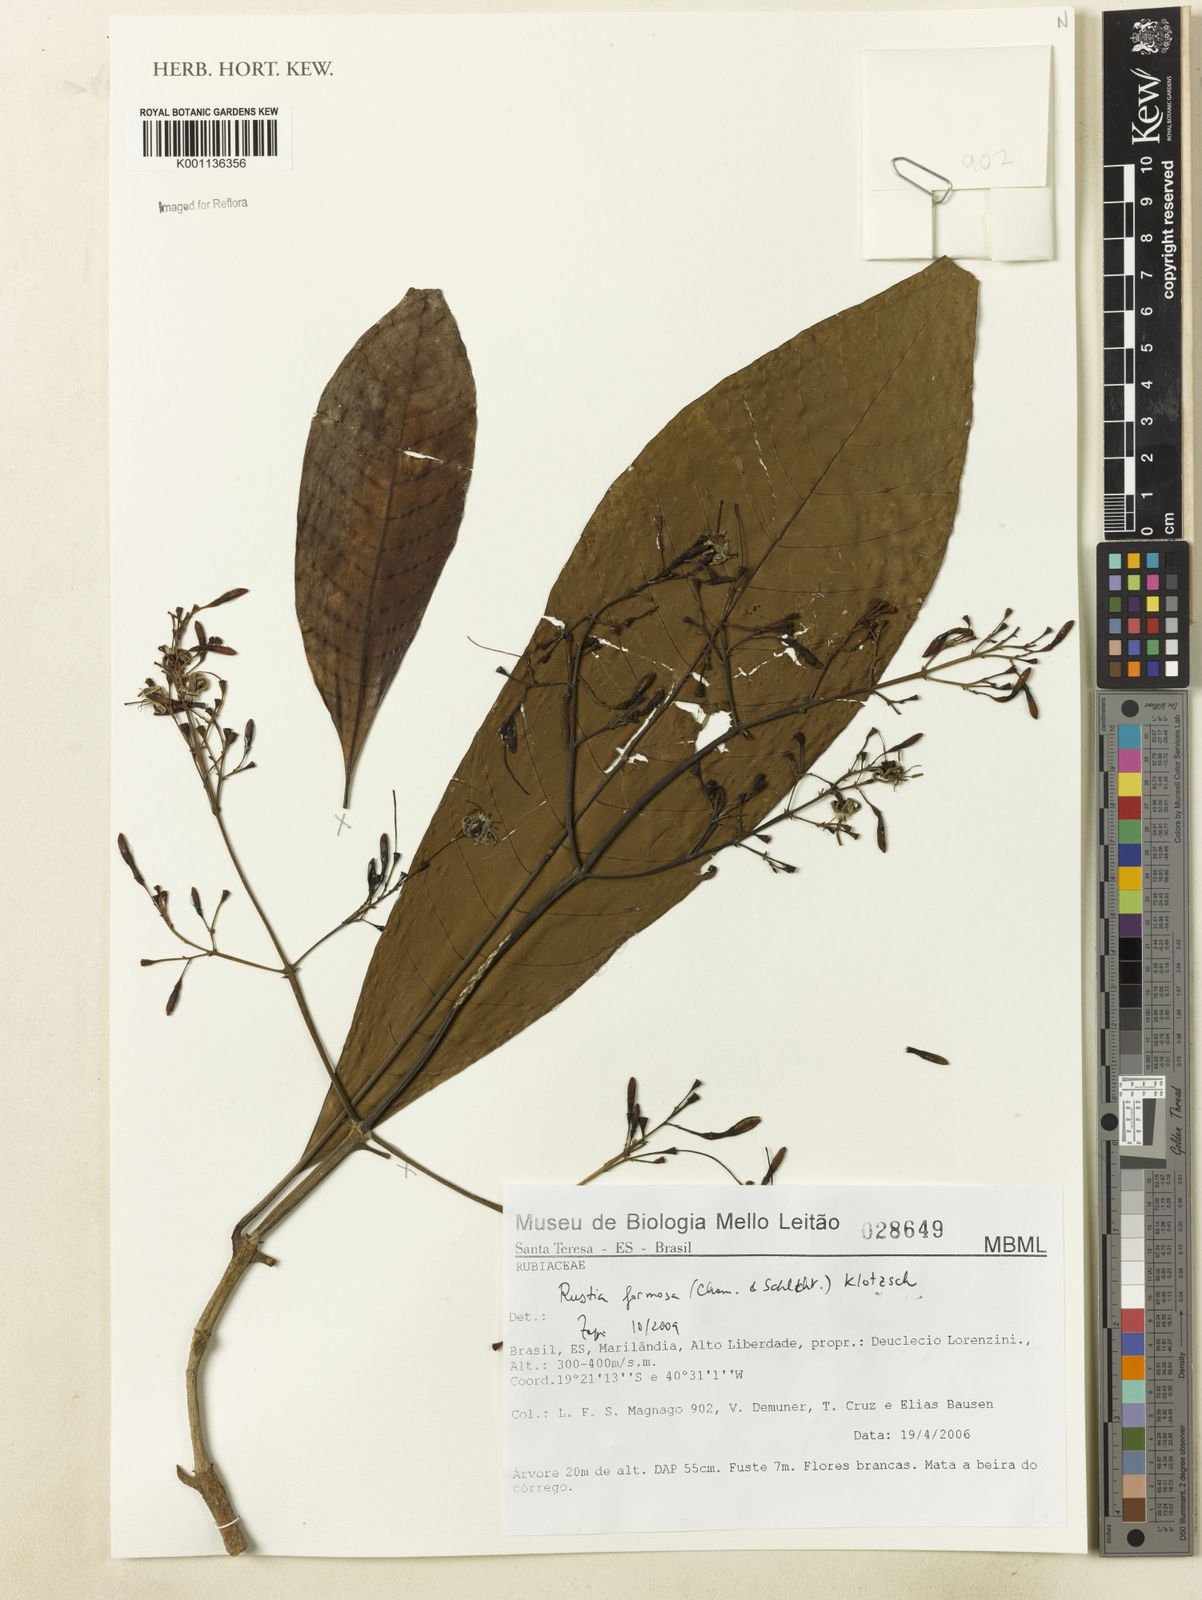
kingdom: Plantae
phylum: Tracheophyta
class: Magnoliopsida
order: Gentianales
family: Rubiaceae
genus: Rustia
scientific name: Rustia formosa
